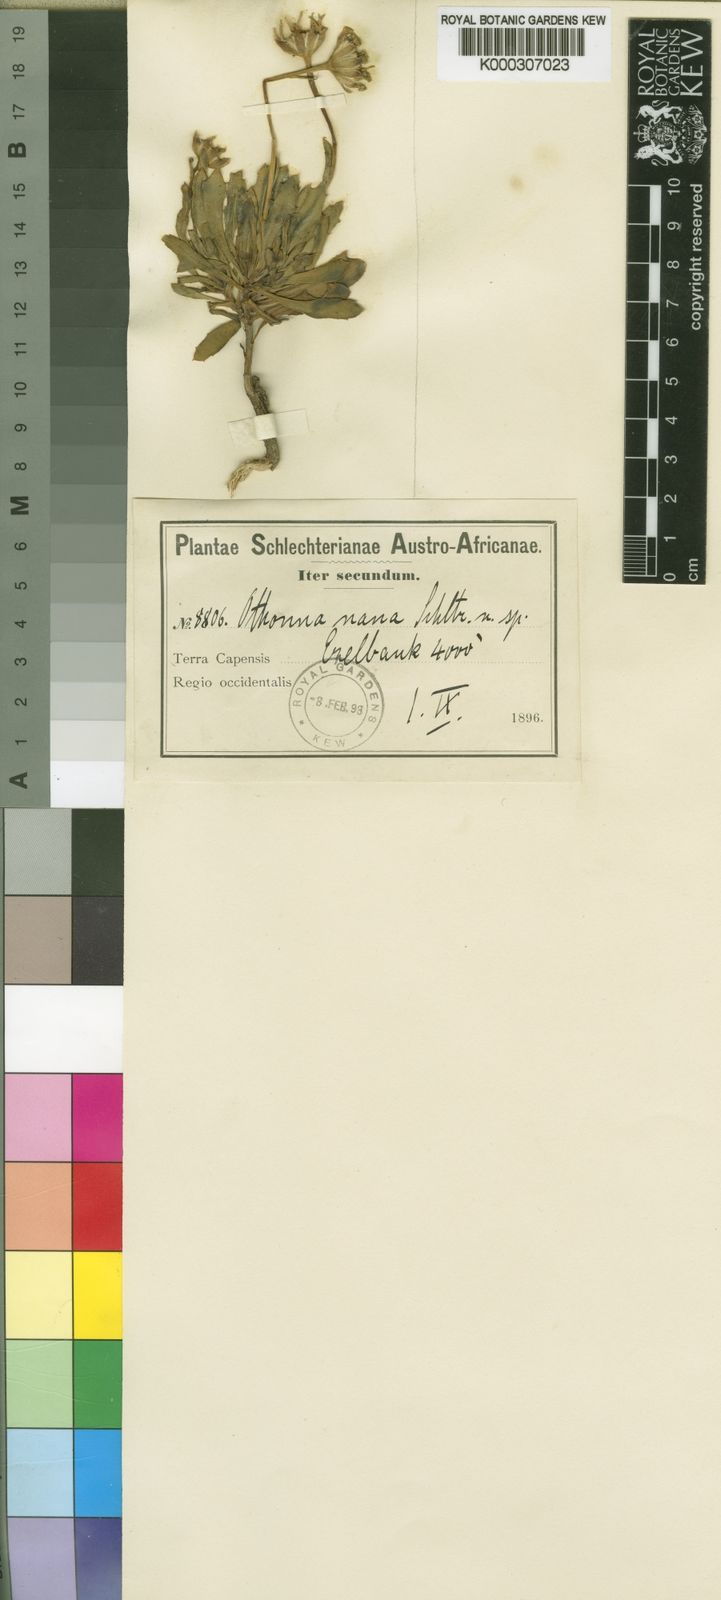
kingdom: Plantae
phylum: Tracheophyta
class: Magnoliopsida
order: Asterales
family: Asteraceae
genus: Othonna
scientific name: Othonna nana
